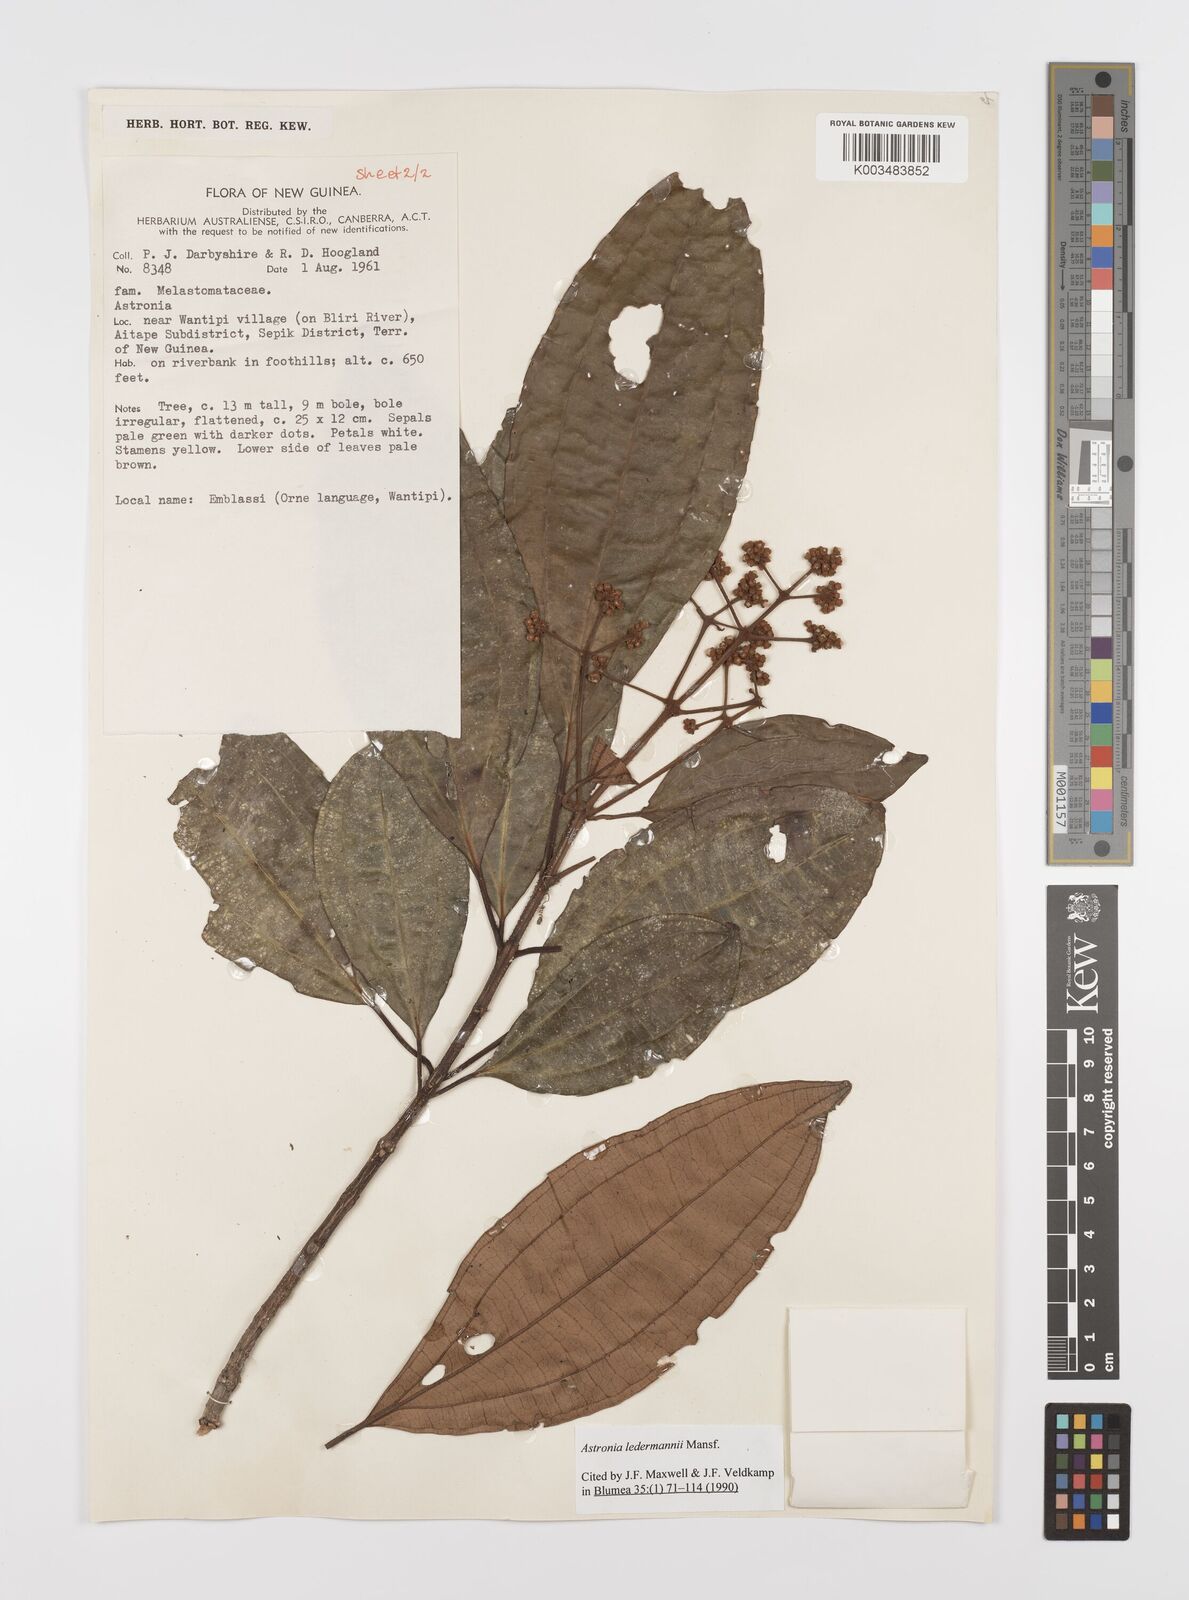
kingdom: Plantae
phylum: Tracheophyta
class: Magnoliopsida
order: Myrtales
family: Melastomataceae
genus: Astronia
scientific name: Astronia ledermannii
